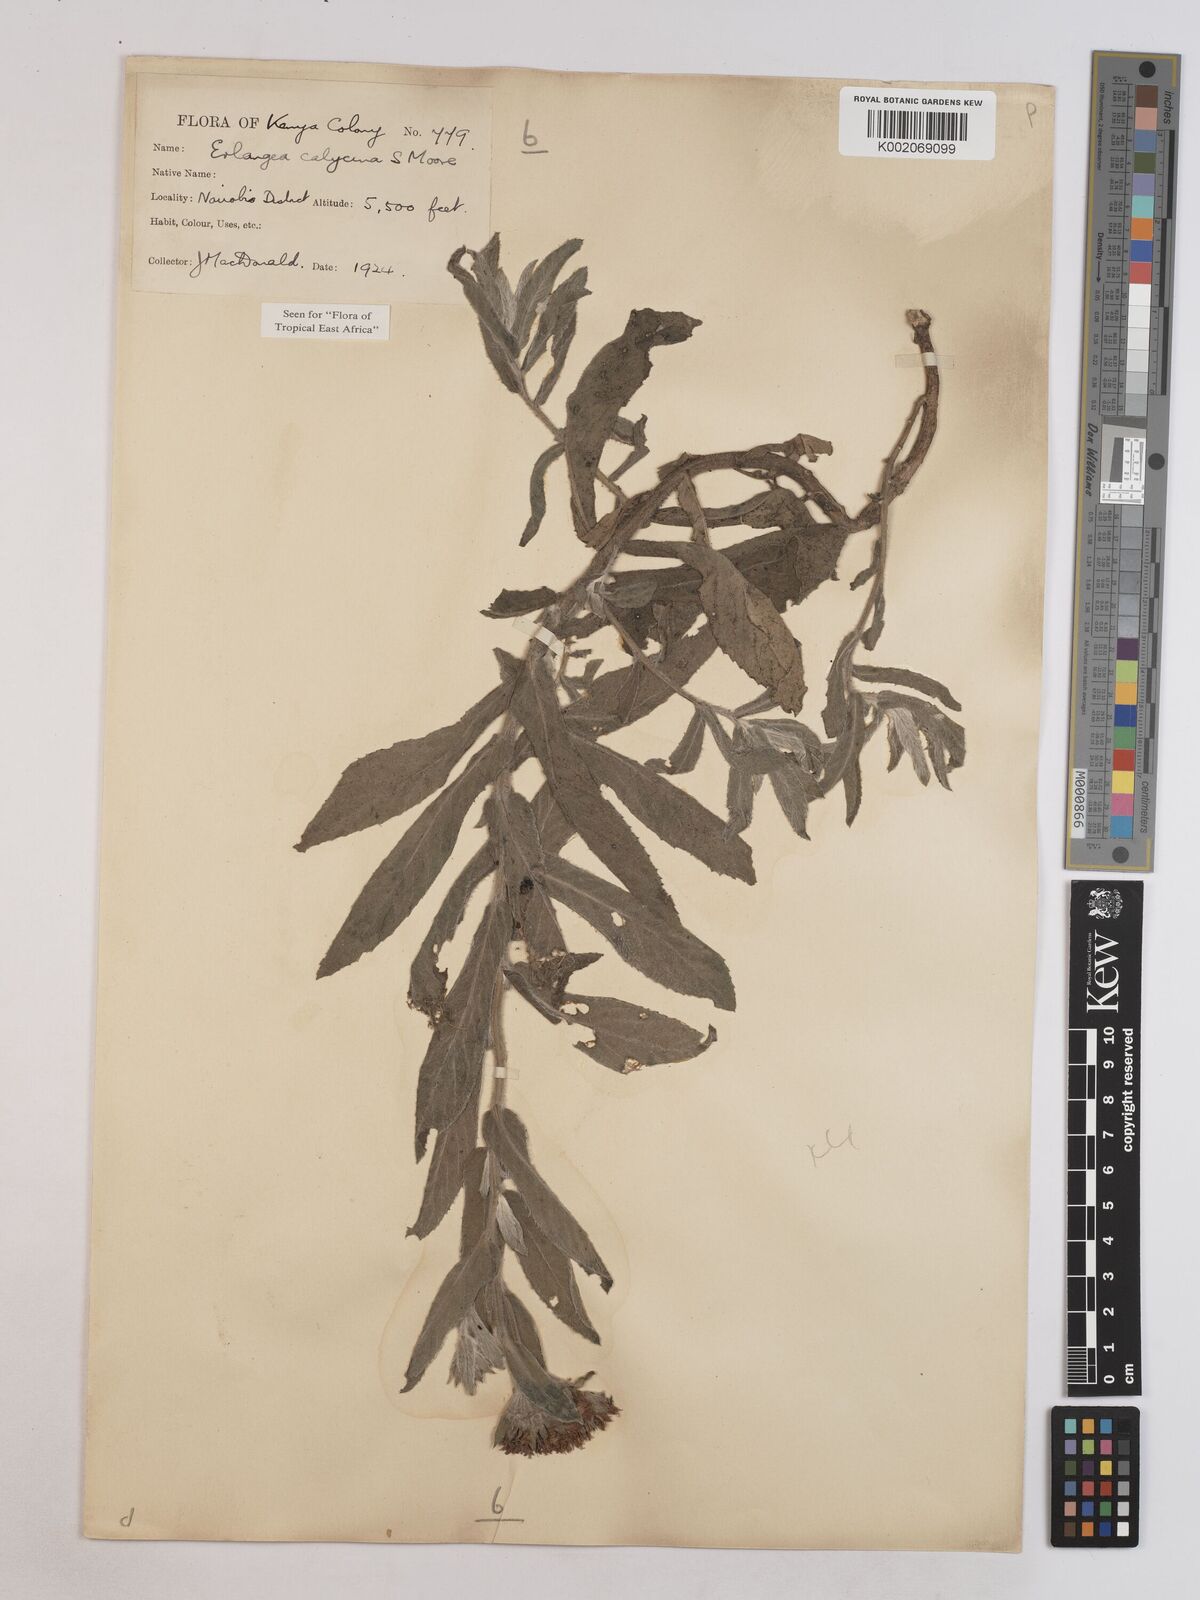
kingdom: Plantae
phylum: Tracheophyta
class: Magnoliopsida
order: Asterales
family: Asteraceae
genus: Erlangea
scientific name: Erlangea calycina
